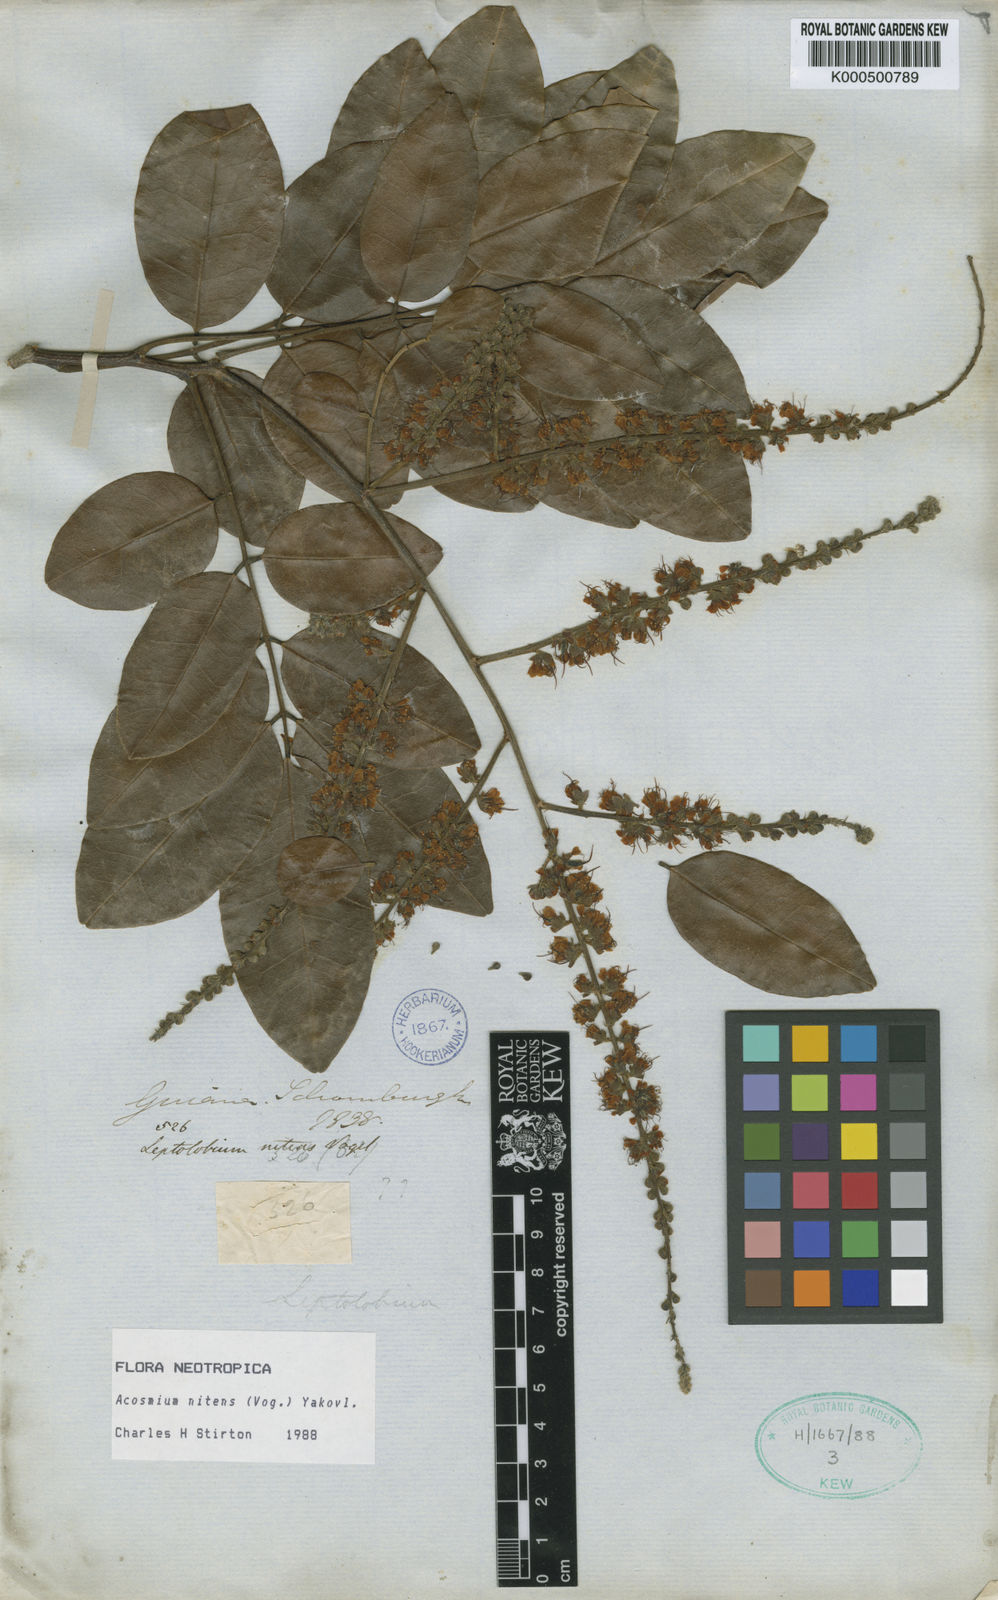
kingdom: Plantae
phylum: Tracheophyta
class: Magnoliopsida
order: Fabales
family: Fabaceae
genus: Leptolobium
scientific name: Leptolobium nitens
